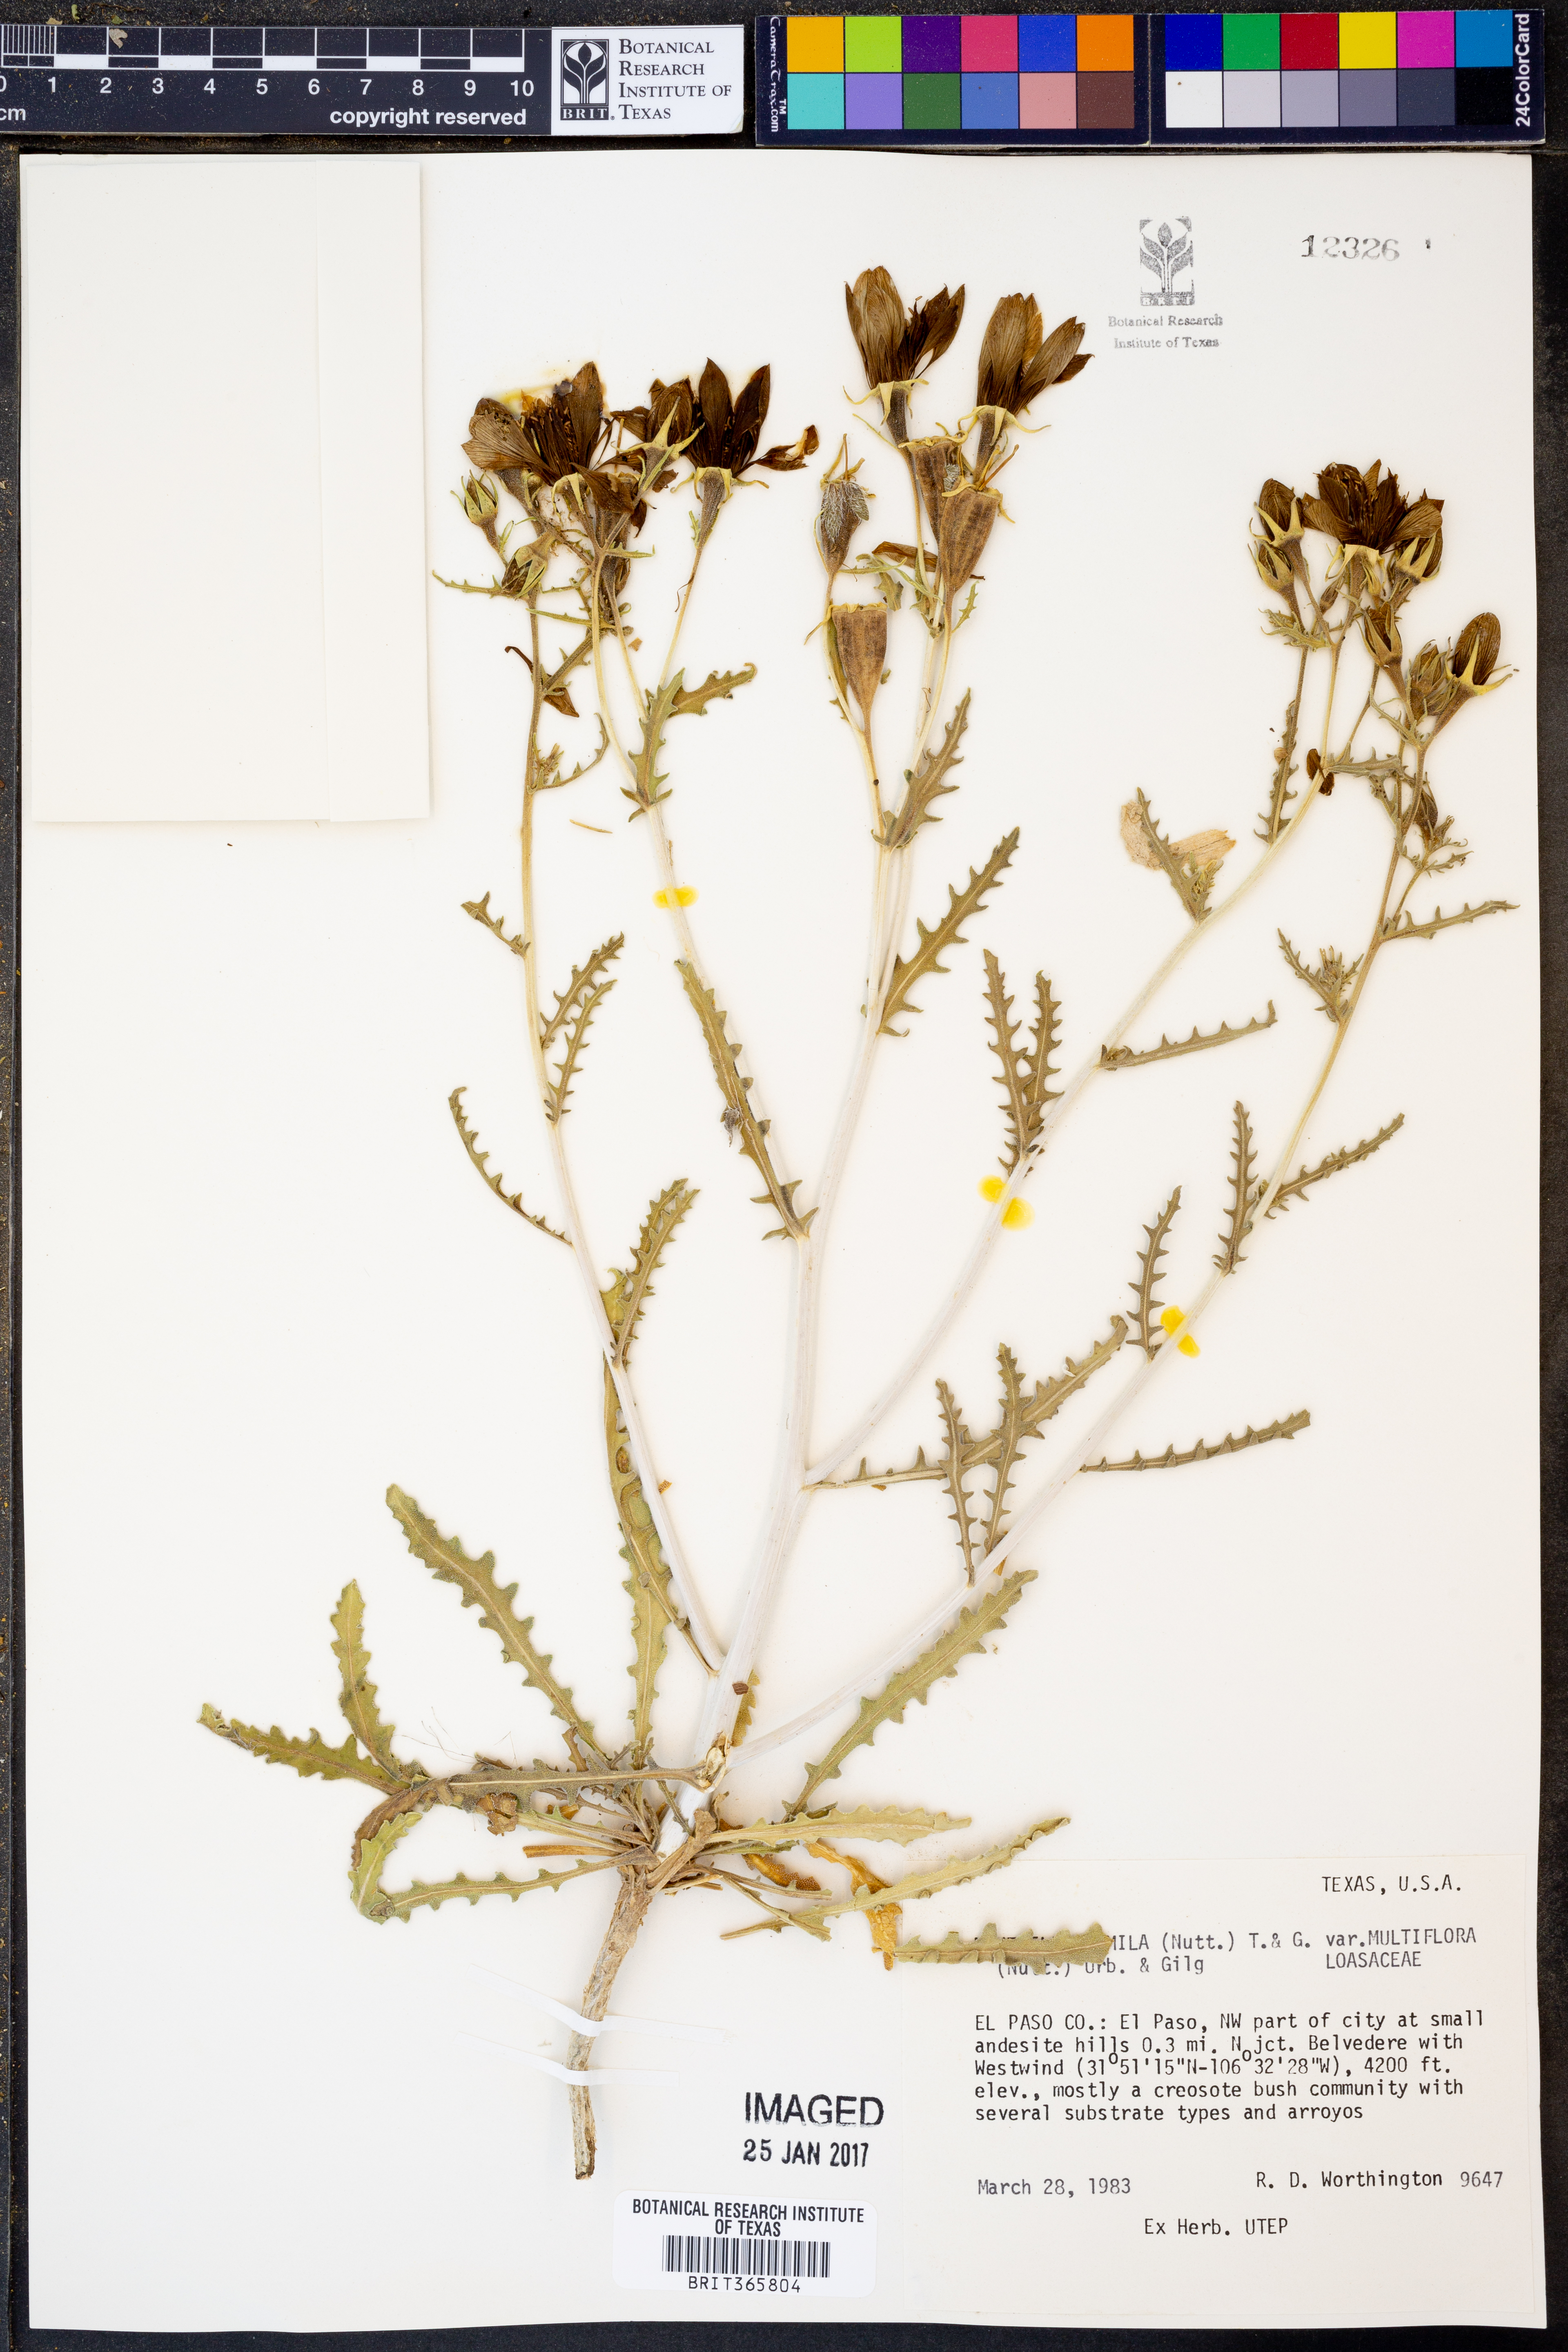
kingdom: Plantae
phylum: Tracheophyta
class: Magnoliopsida
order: Cornales
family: Loasaceae
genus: Mentzelia
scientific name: Mentzelia multiflora
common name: Adonis blazingstar
